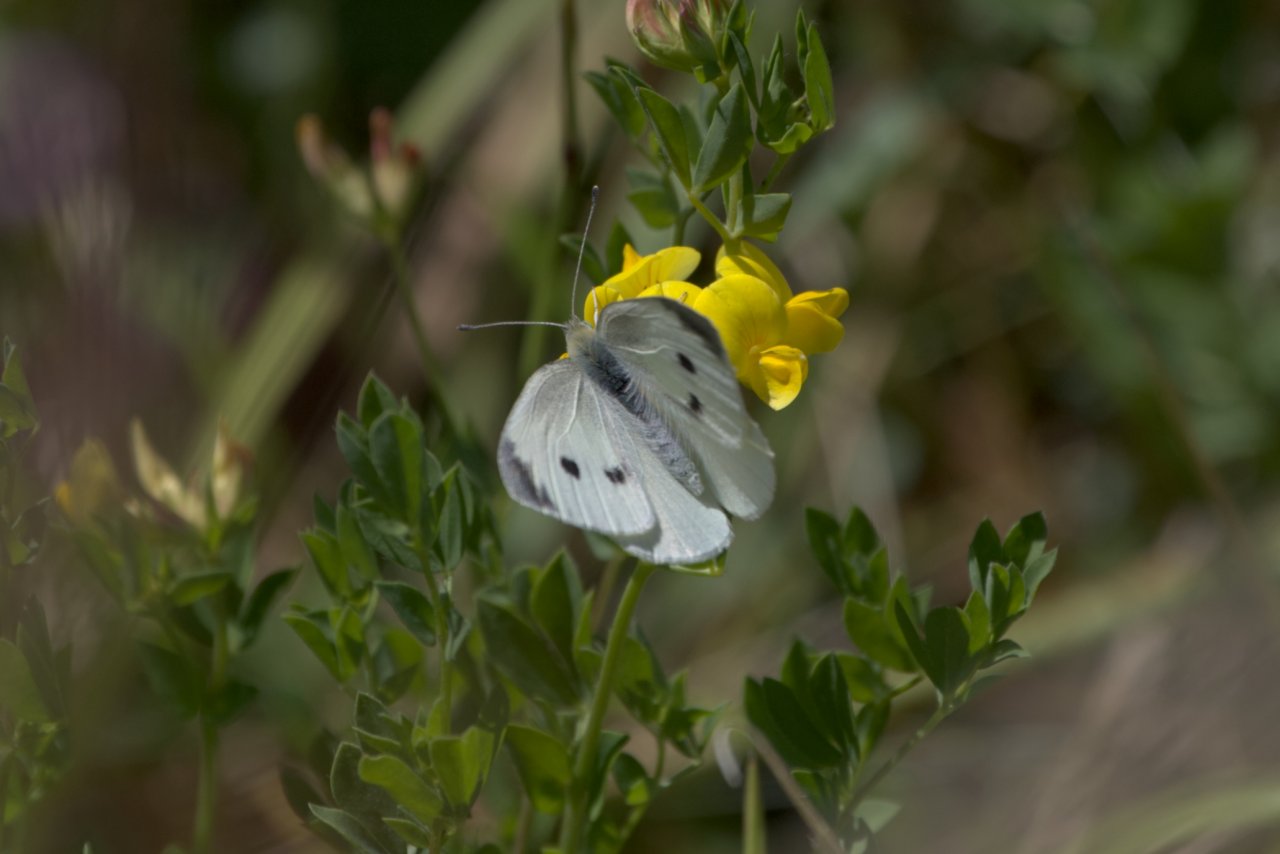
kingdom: Animalia
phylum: Arthropoda
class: Insecta
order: Lepidoptera
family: Pieridae
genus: Pieris
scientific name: Pieris rapae
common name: Cabbage White
